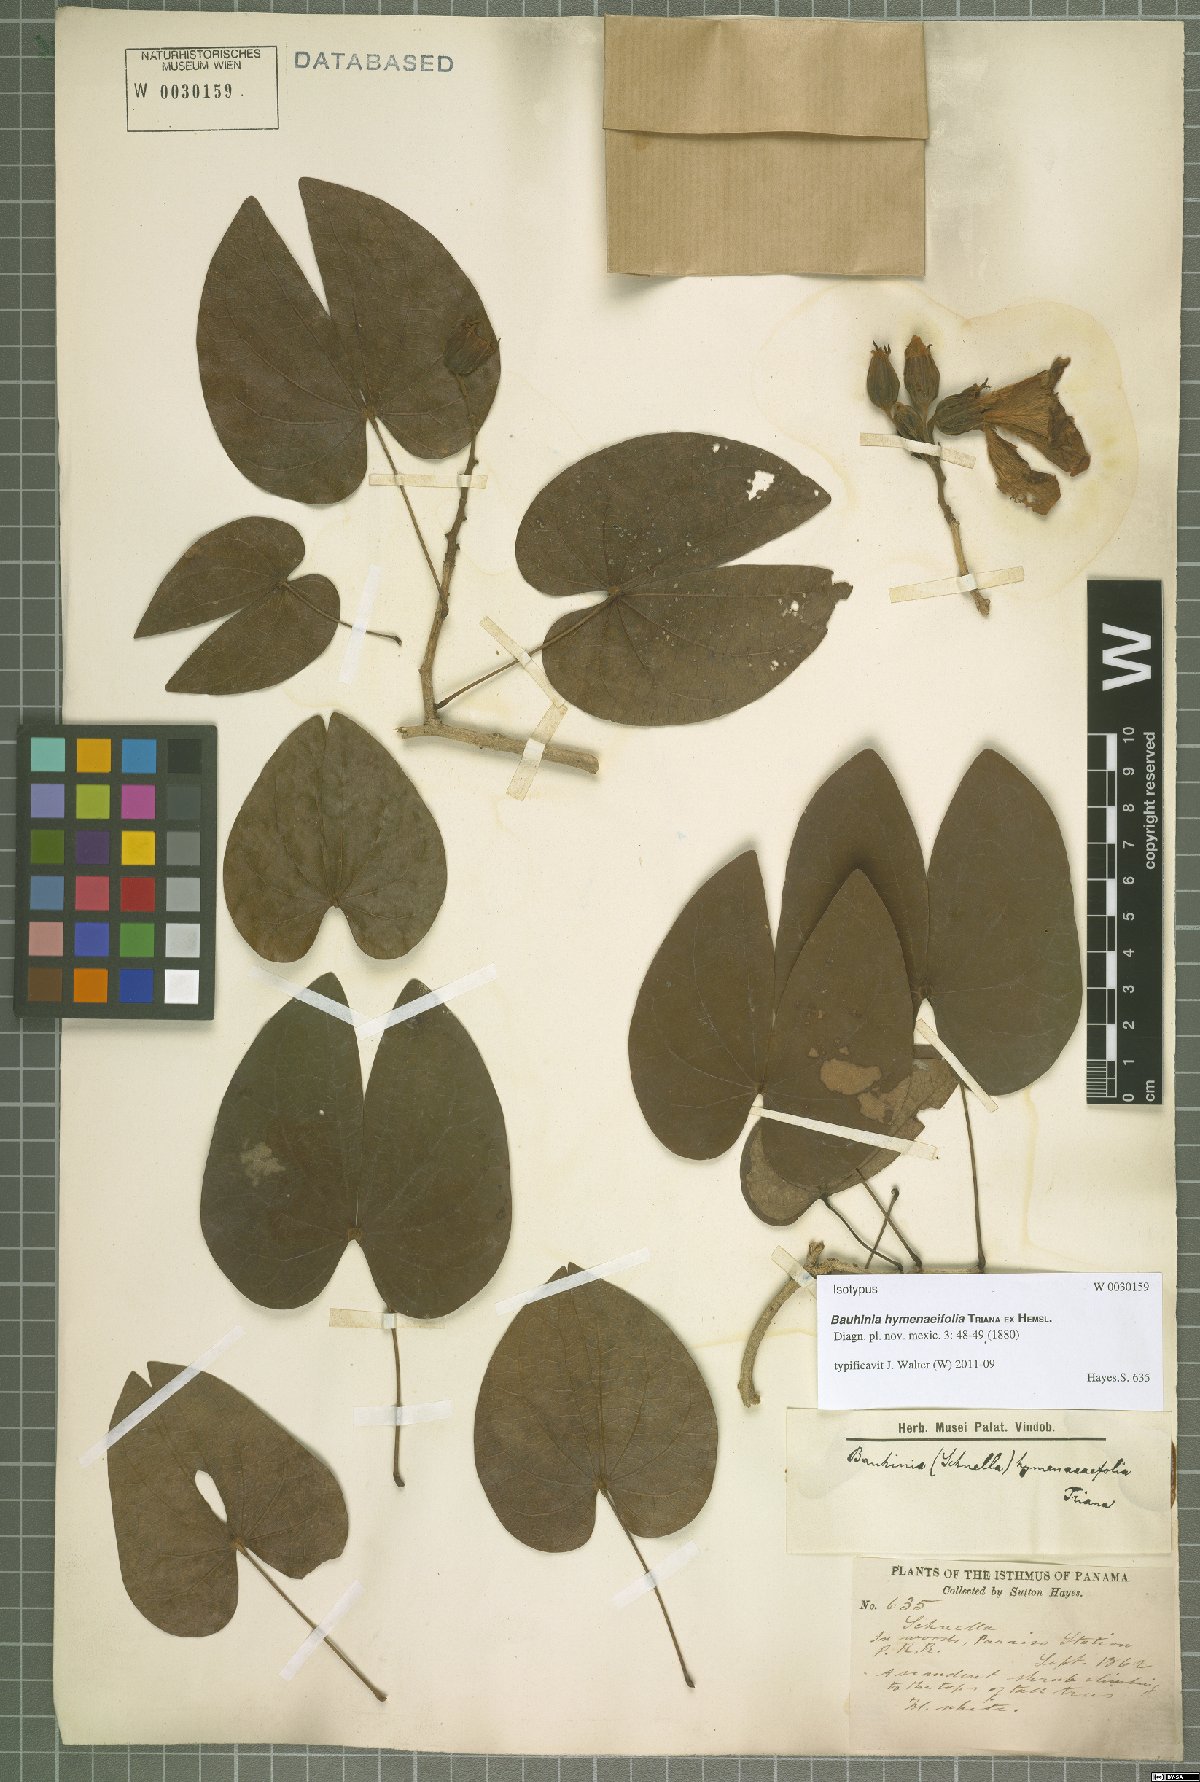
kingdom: Plantae
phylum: Tracheophyta
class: Magnoliopsida
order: Fabales
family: Fabaceae
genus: Schnella
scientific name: Schnella hymenaeifolia
